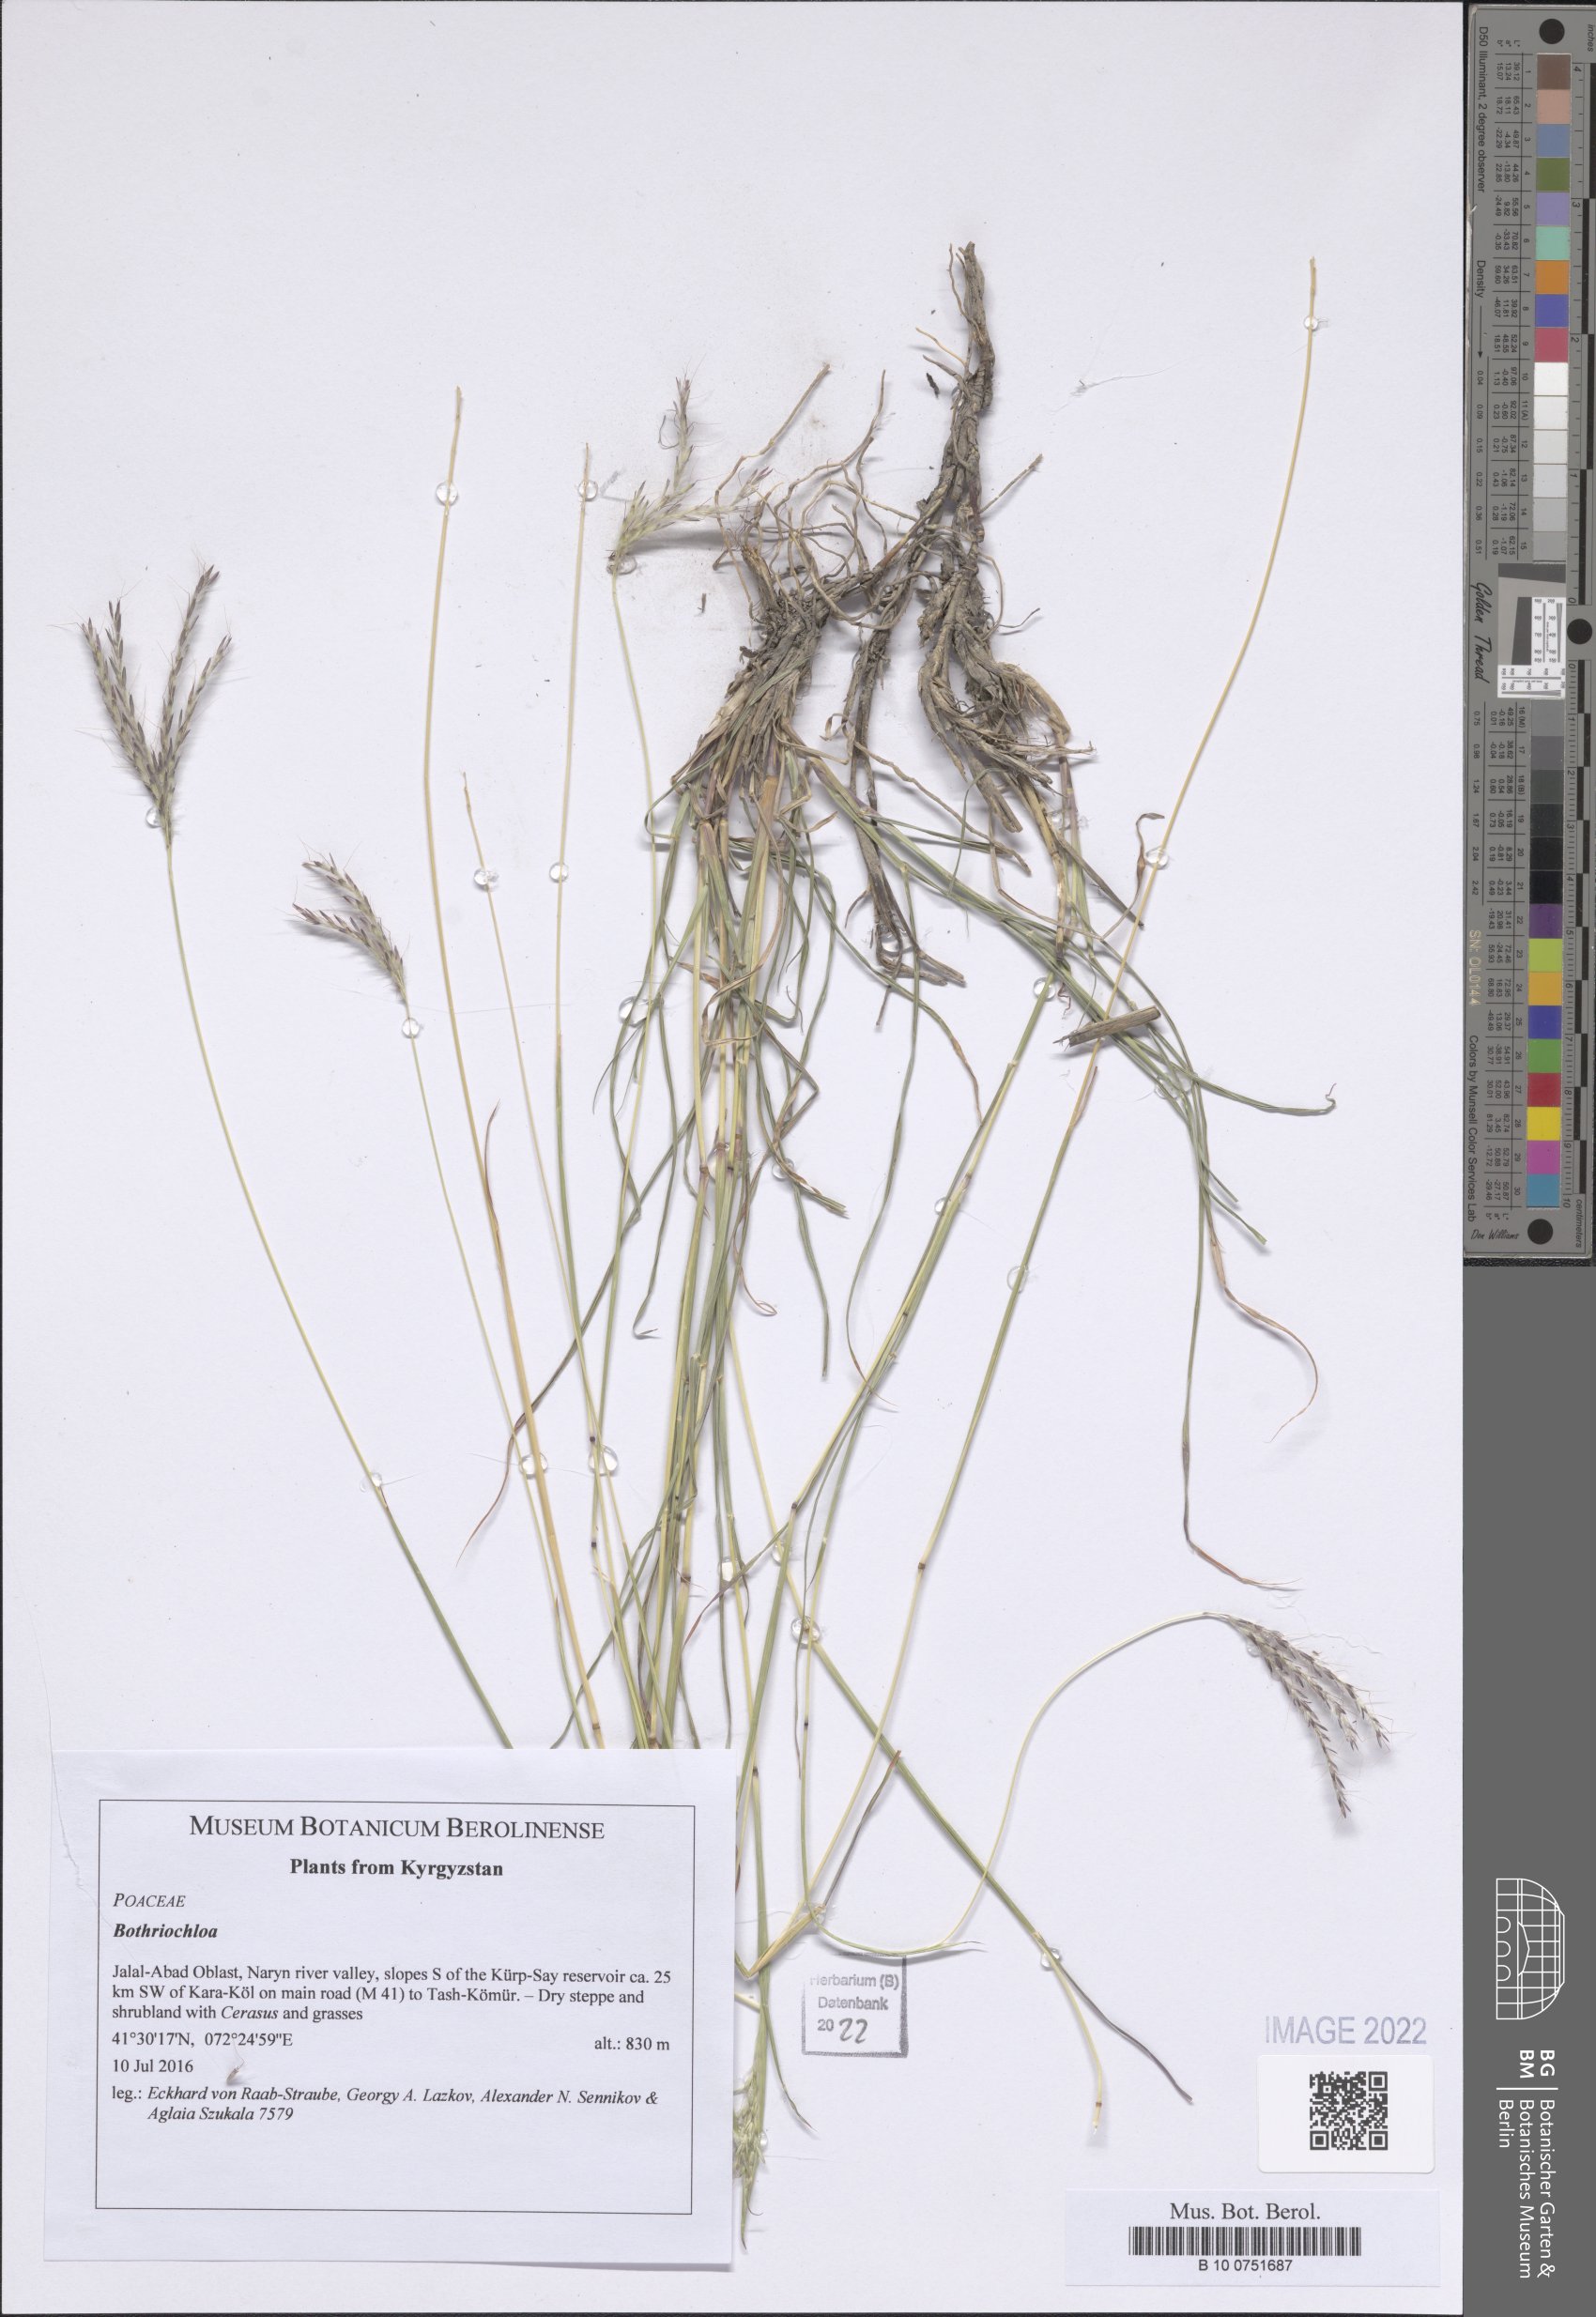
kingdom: Plantae
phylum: Tracheophyta
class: Liliopsida
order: Poales
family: Poaceae
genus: Bothriochloa
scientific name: Bothriochloa
